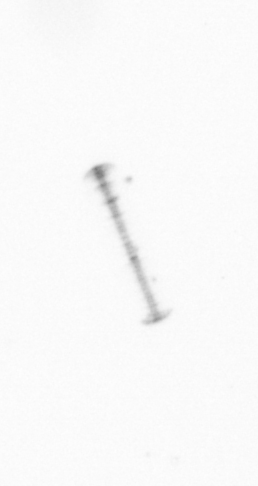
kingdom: Chromista
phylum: Ochrophyta
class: Bacillariophyceae
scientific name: Bacillariophyceae
